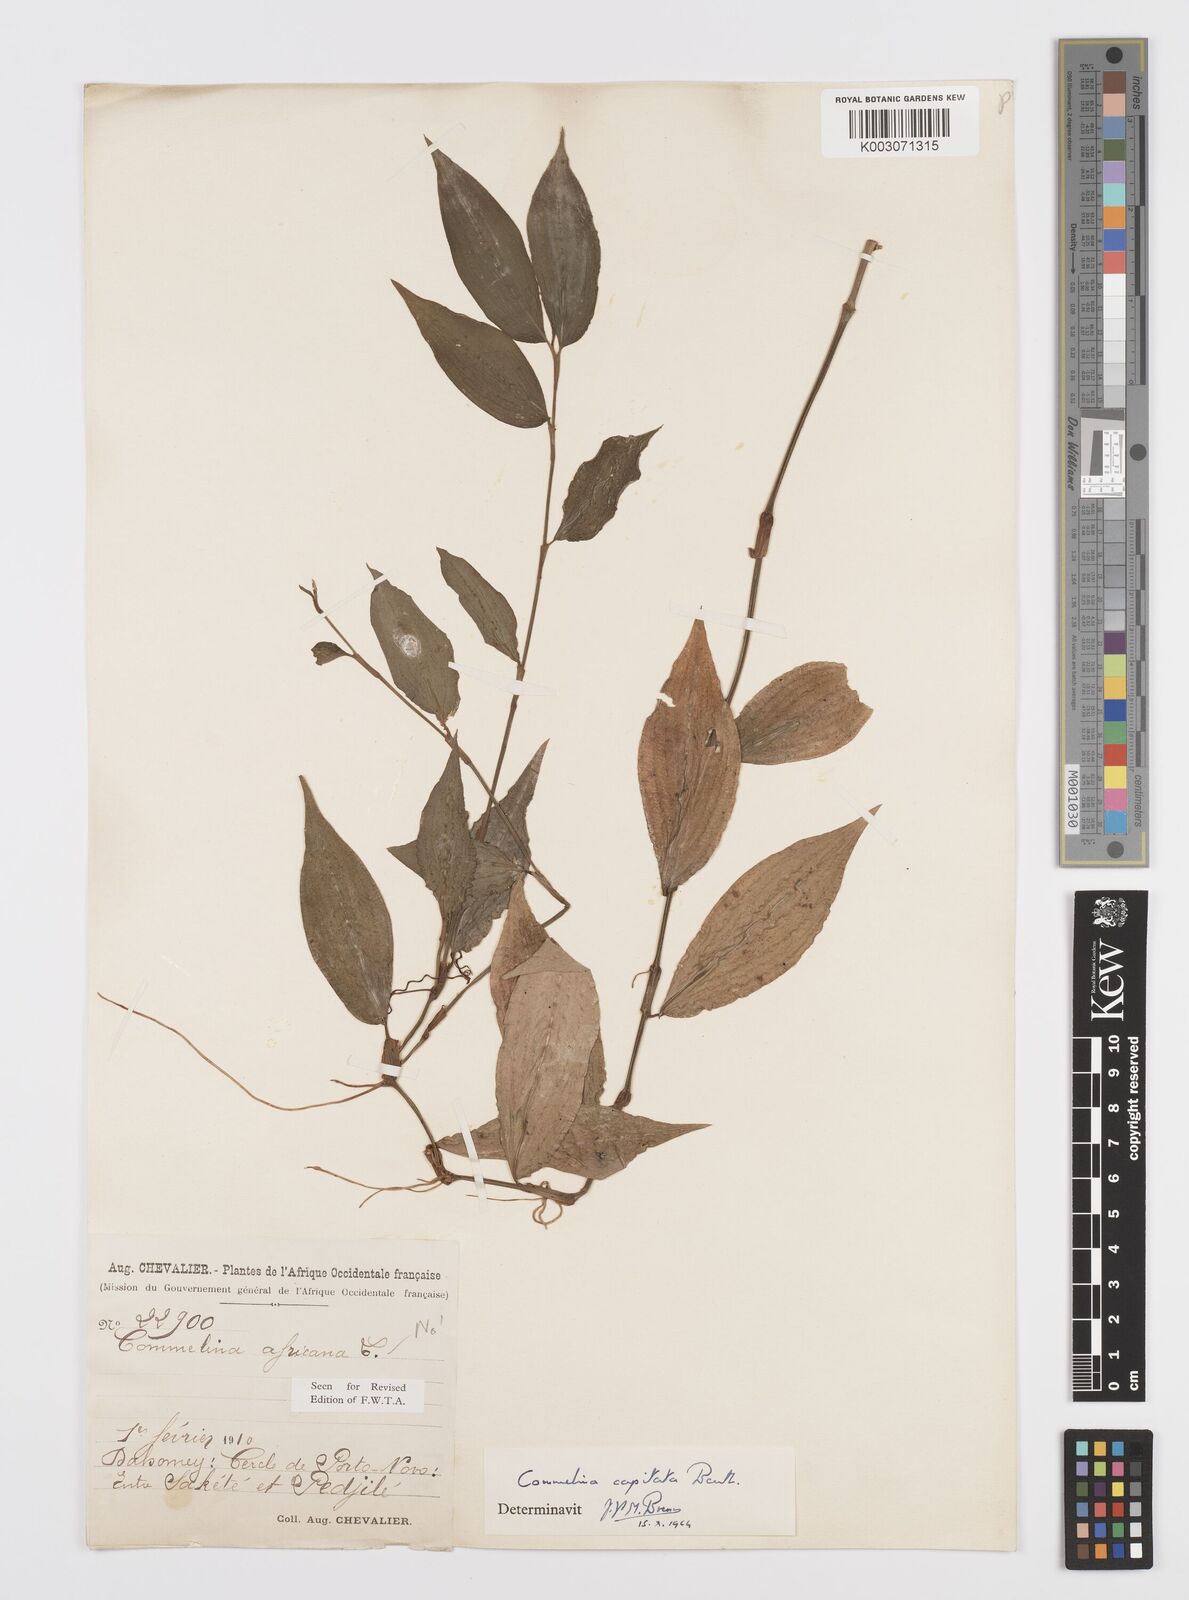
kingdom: Plantae
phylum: Tracheophyta
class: Liliopsida
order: Commelinales
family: Commelinaceae
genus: Commelina
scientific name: Commelina capitata
